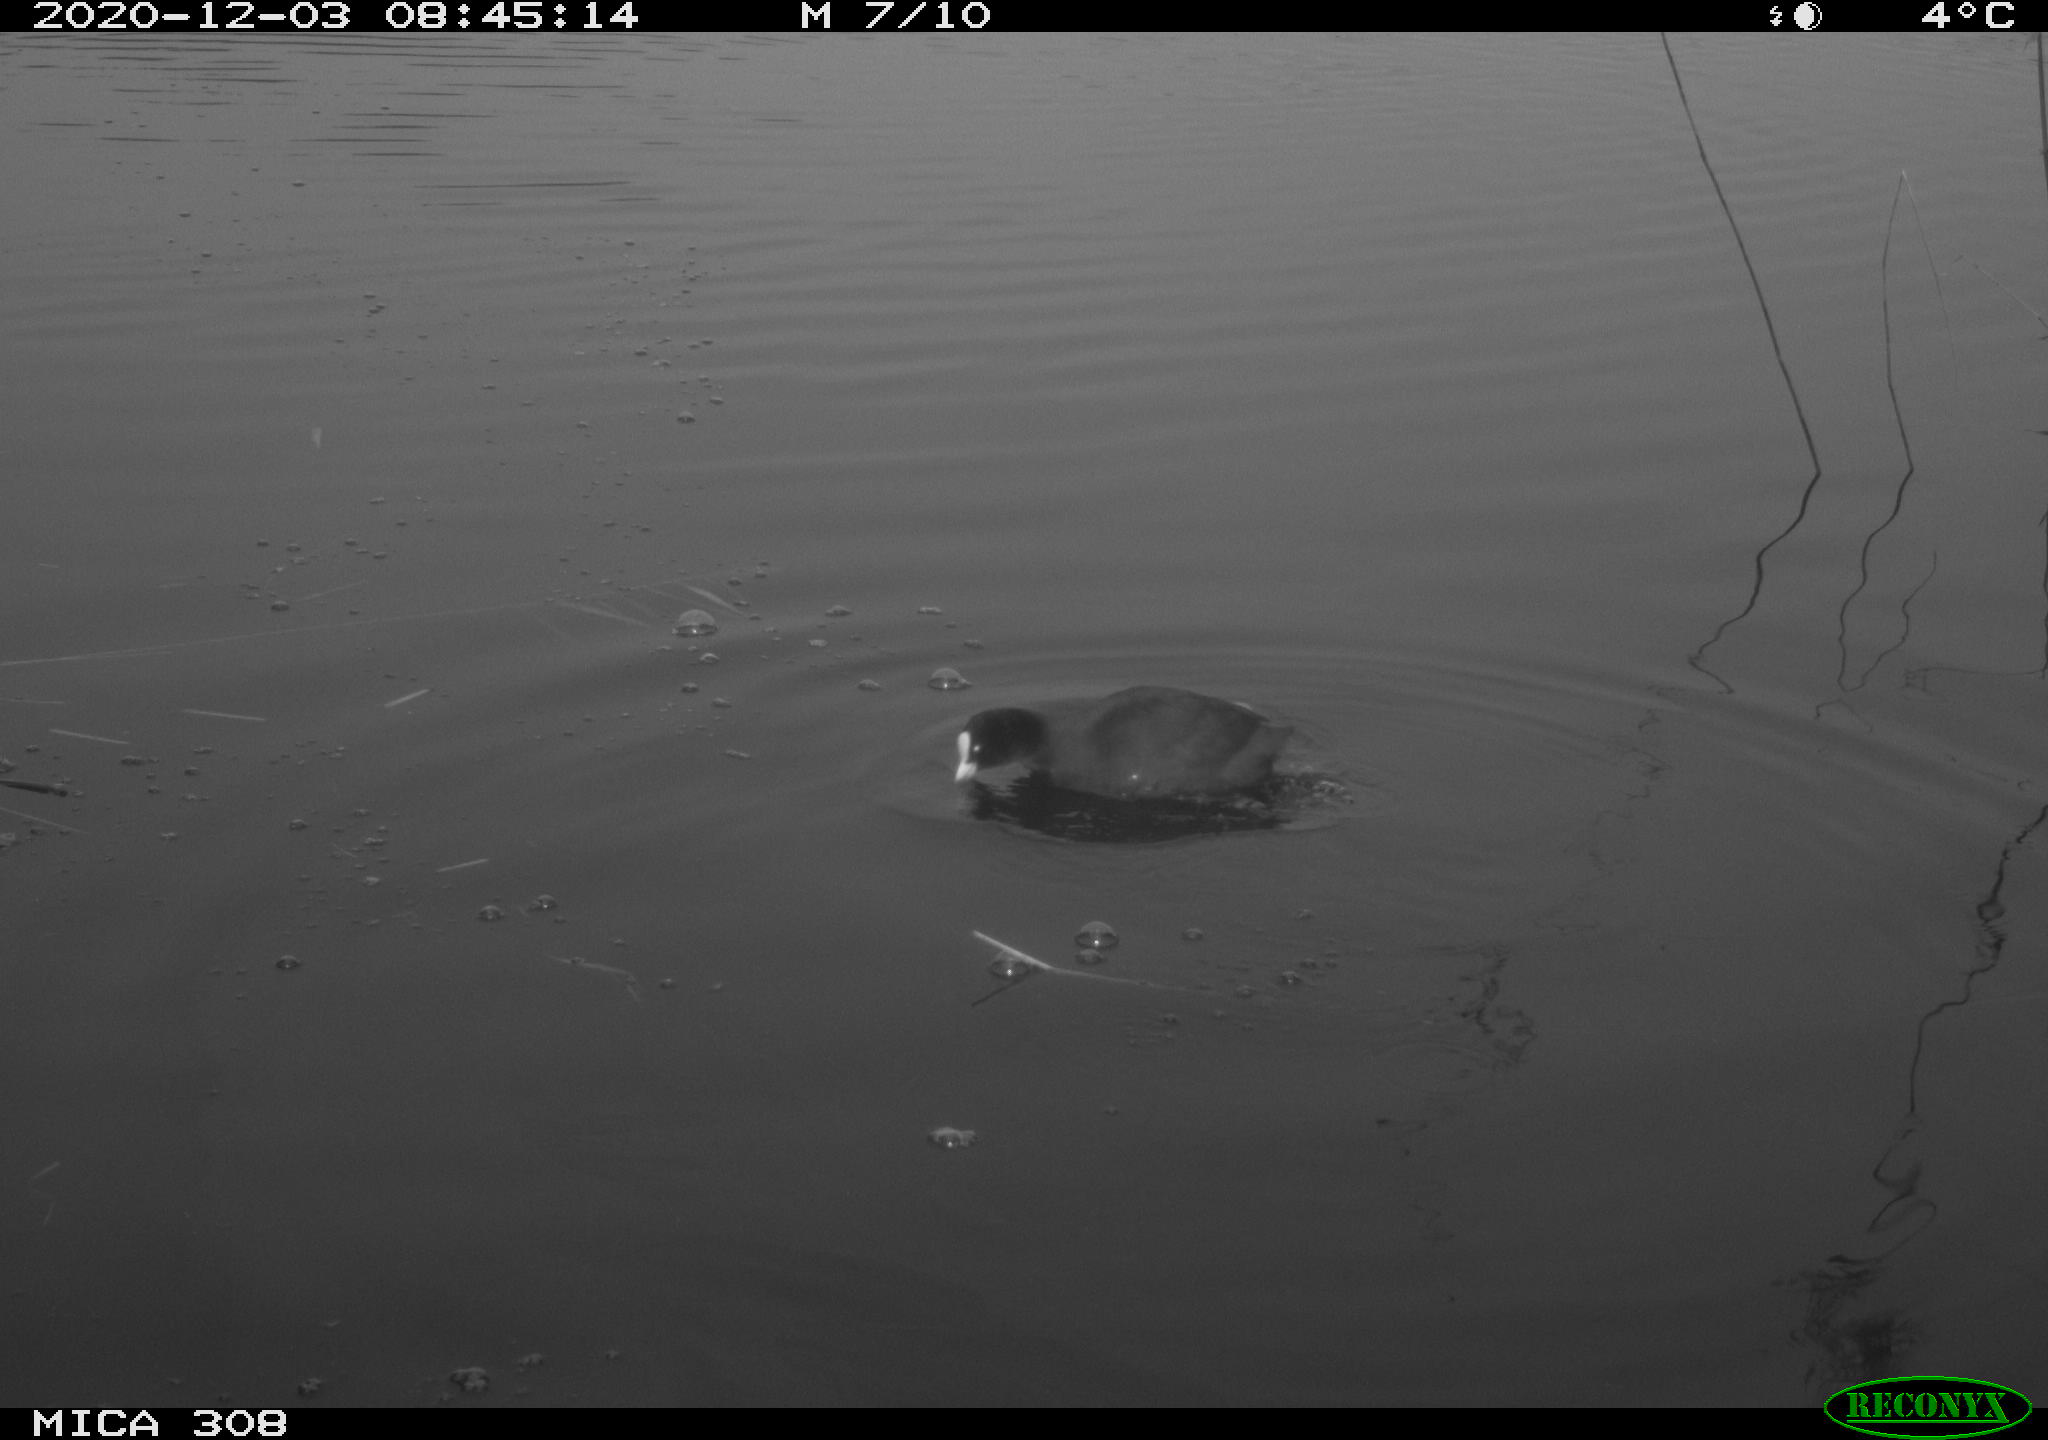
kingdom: Animalia
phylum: Chordata
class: Aves
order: Gruiformes
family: Rallidae
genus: Fulica
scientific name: Fulica atra
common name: Eurasian coot
